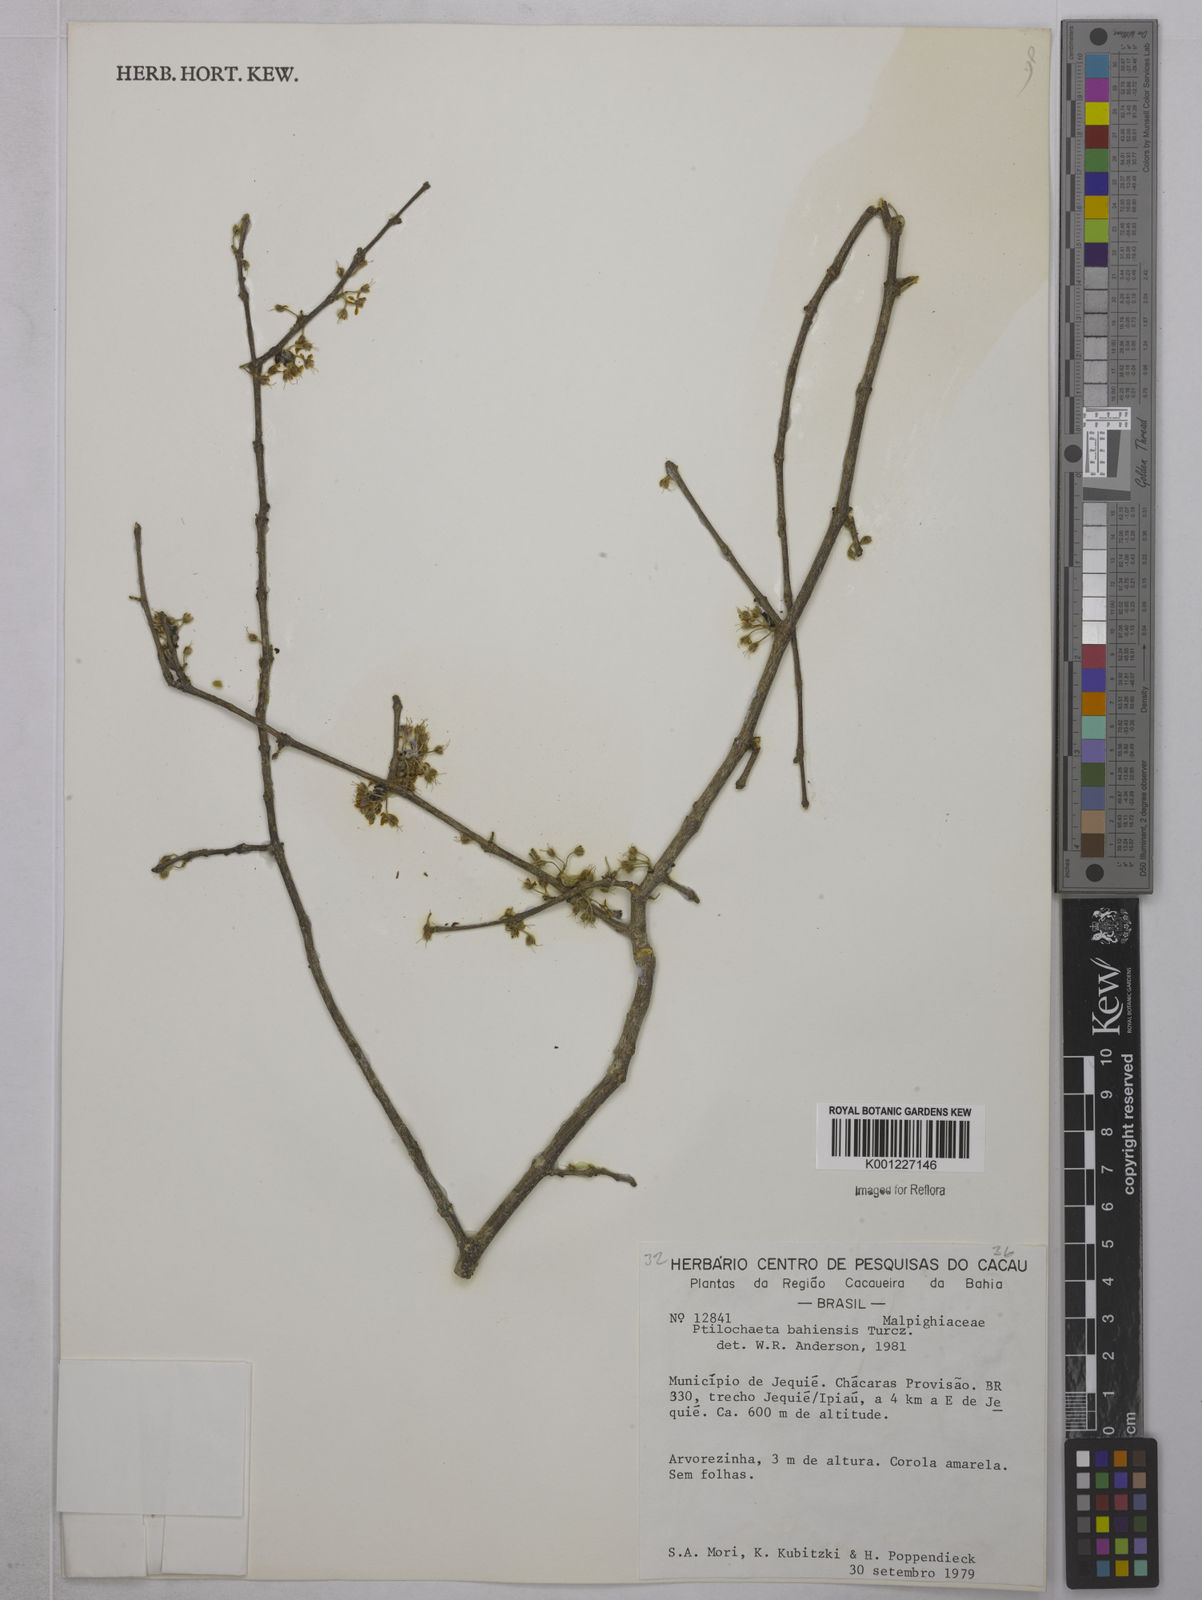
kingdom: Plantae
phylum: Tracheophyta
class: Magnoliopsida
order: Malpighiales
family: Malpighiaceae
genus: Ptilochaeta
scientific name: Ptilochaeta bahiensis
